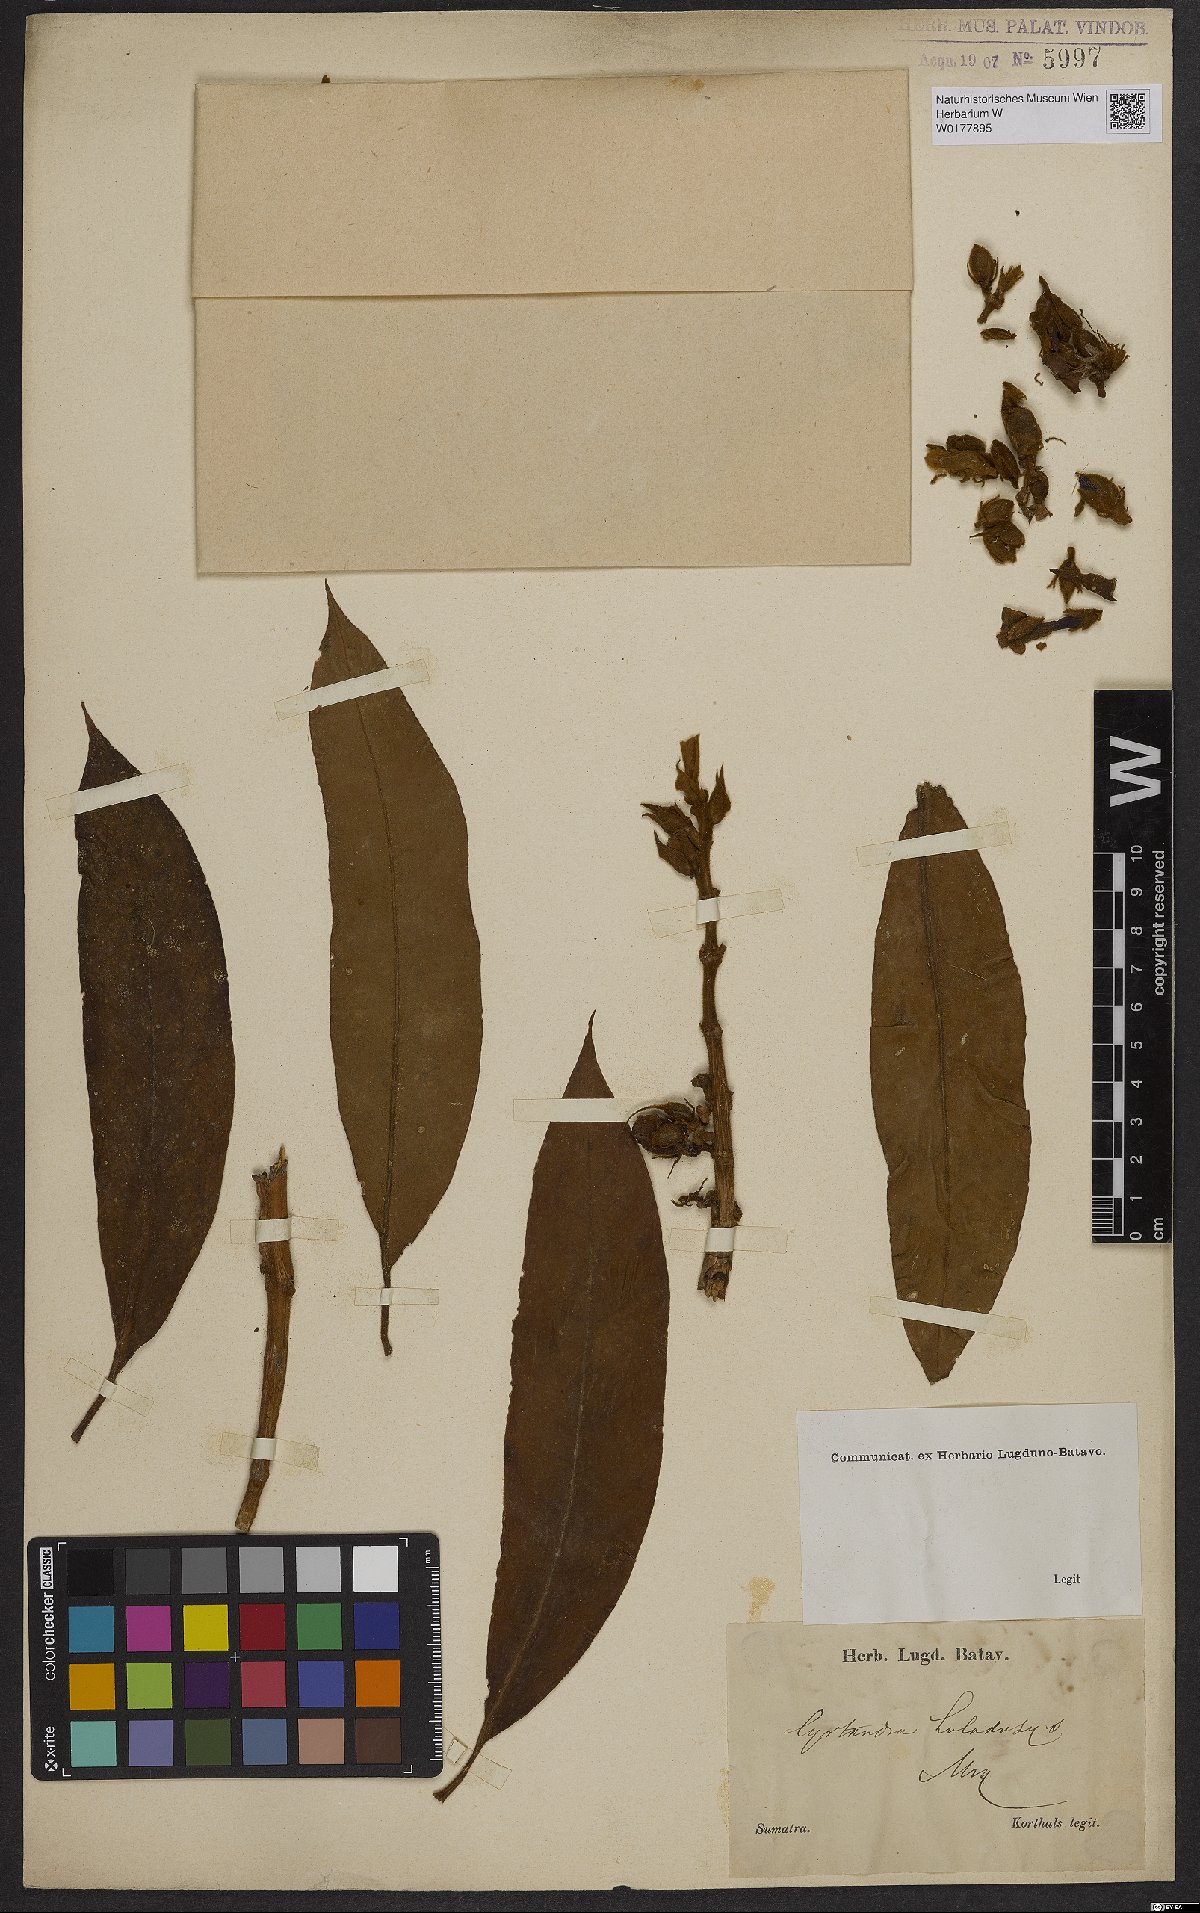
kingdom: Plantae
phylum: Tracheophyta
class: Magnoliopsida
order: Lamiales
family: Gesneriaceae
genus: Cyrtandra
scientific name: Cyrtandra holodasys
